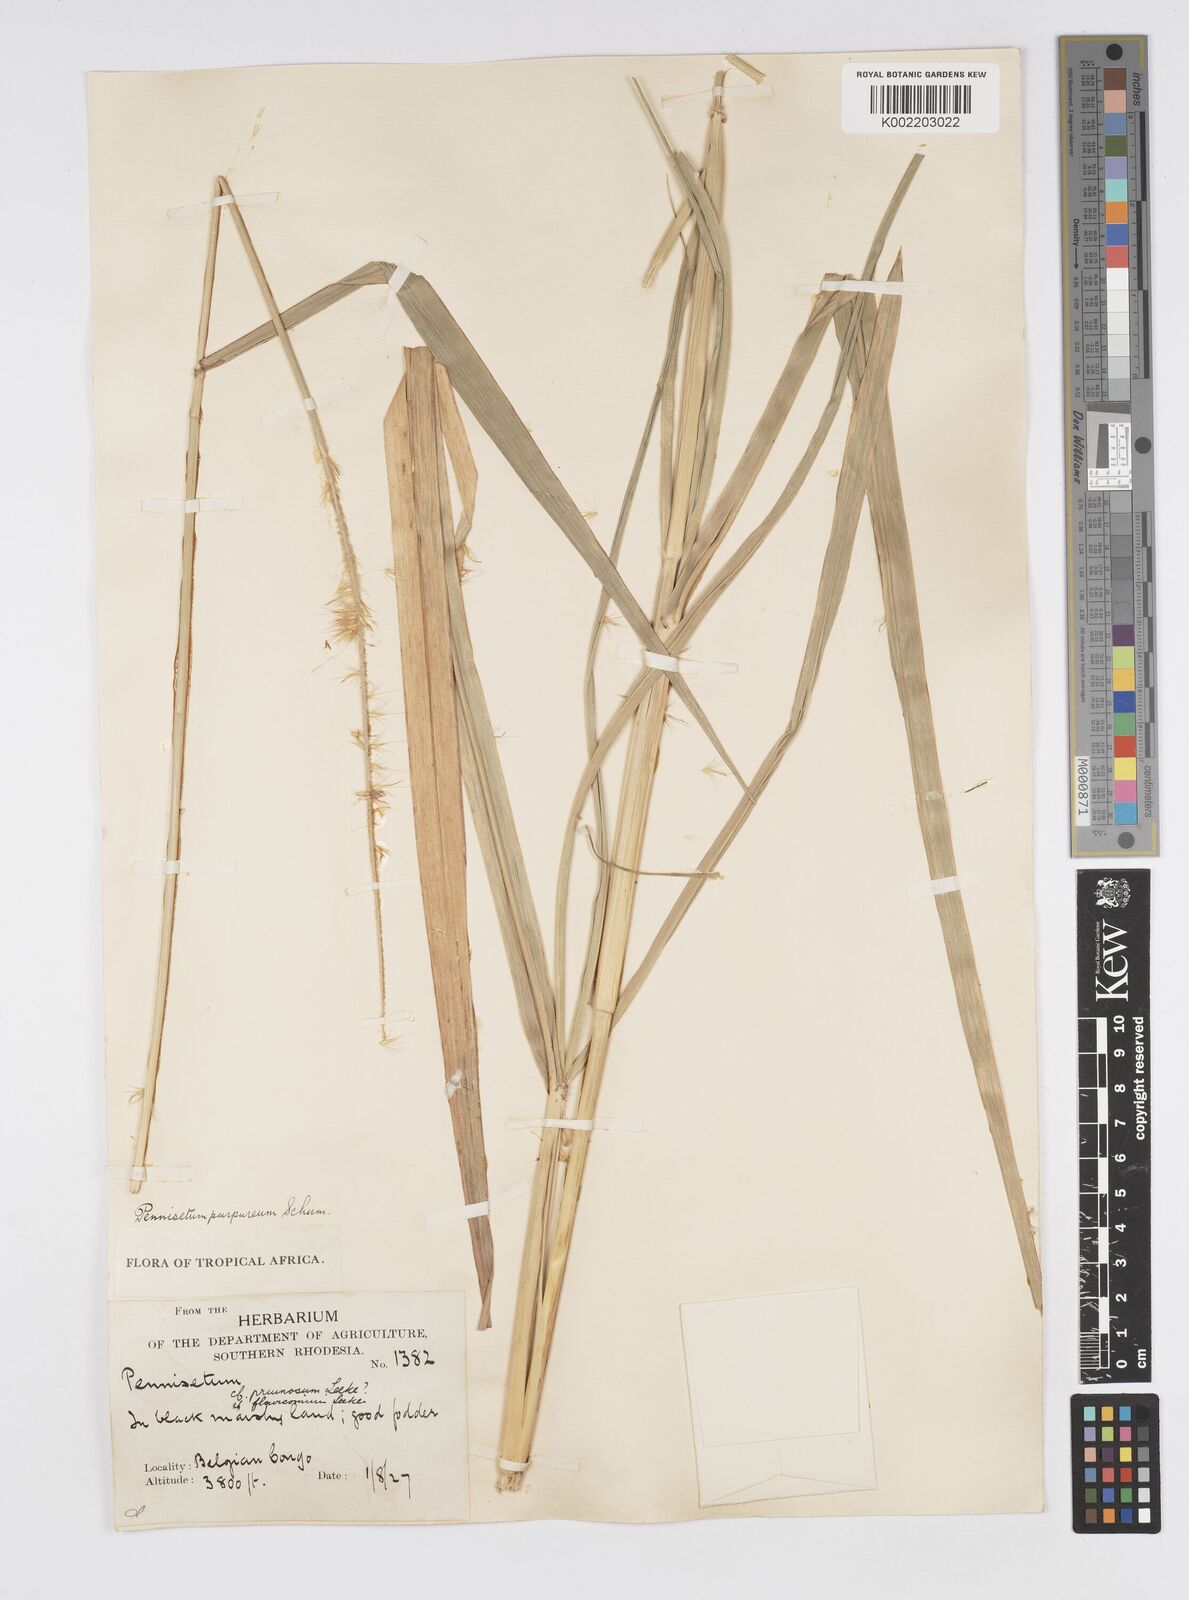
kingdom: Plantae
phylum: Tracheophyta
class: Liliopsida
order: Poales
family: Poaceae
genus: Cenchrus
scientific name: Cenchrus purpureus
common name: Elephant grass
